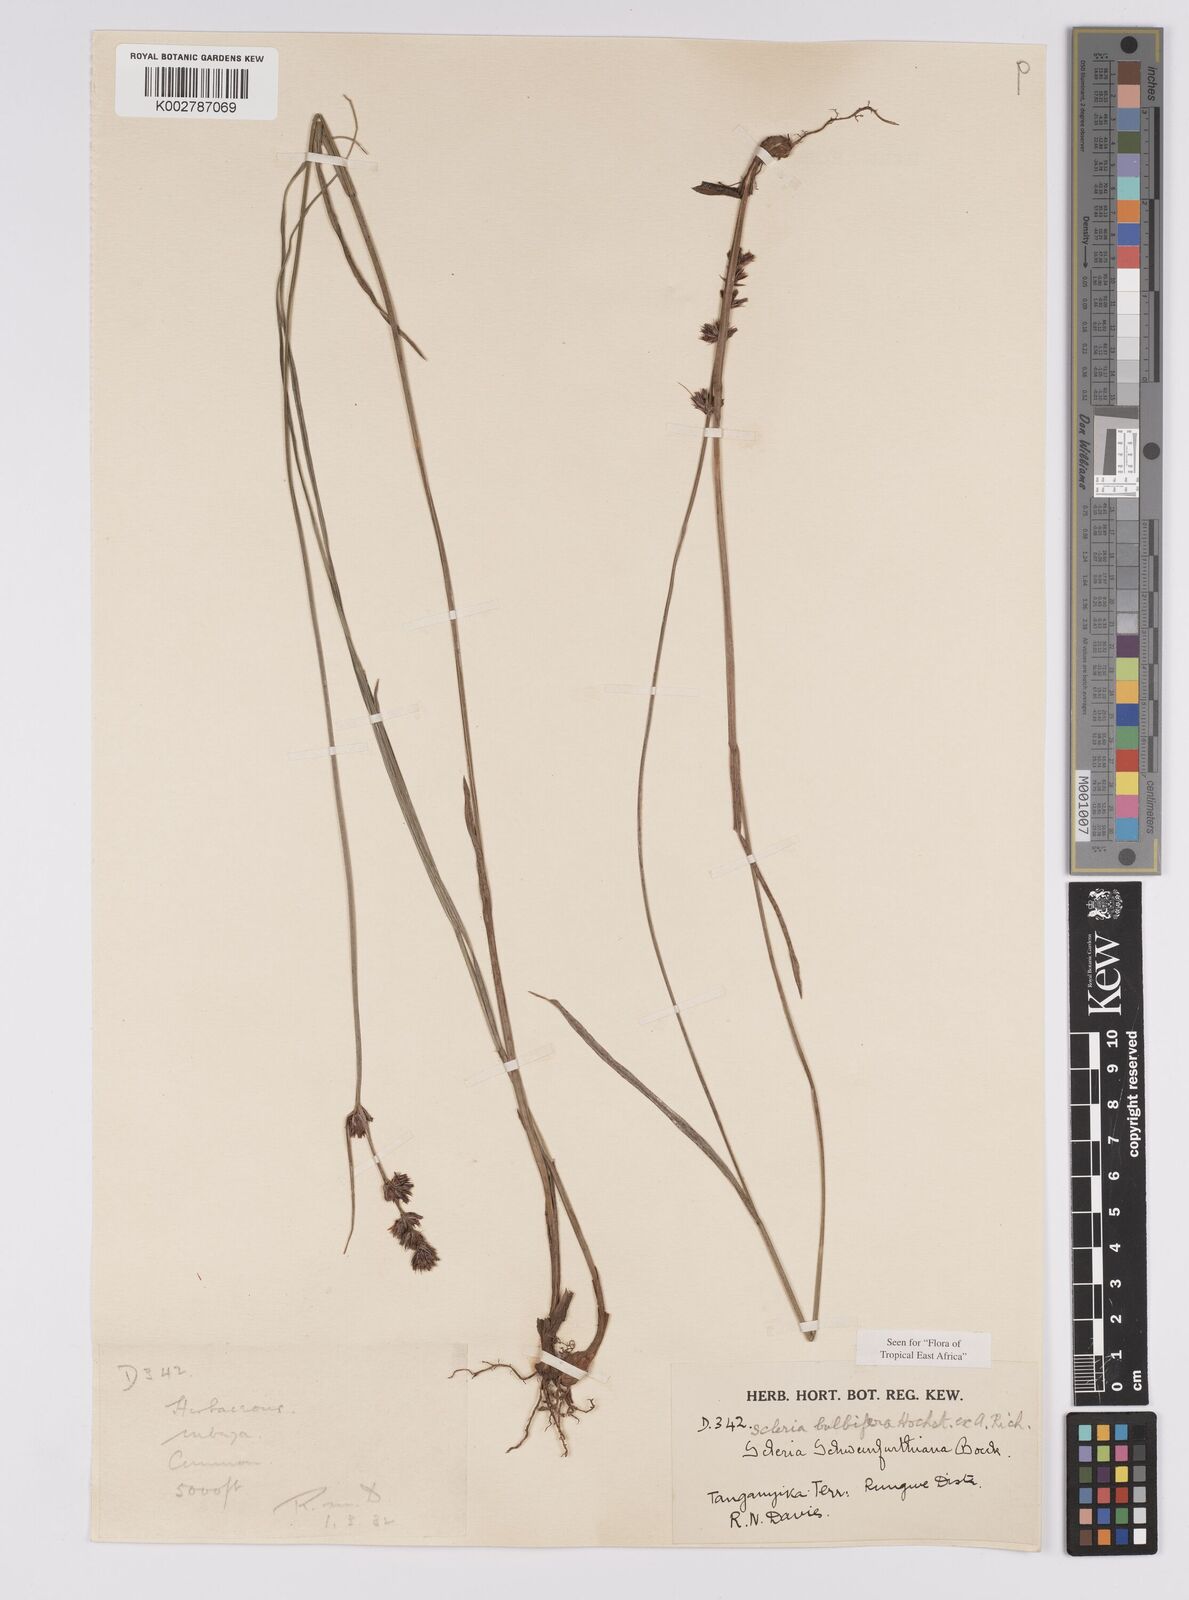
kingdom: Plantae
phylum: Tracheophyta
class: Liliopsida
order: Poales
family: Cyperaceae
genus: Scleria
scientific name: Scleria bulbifera
